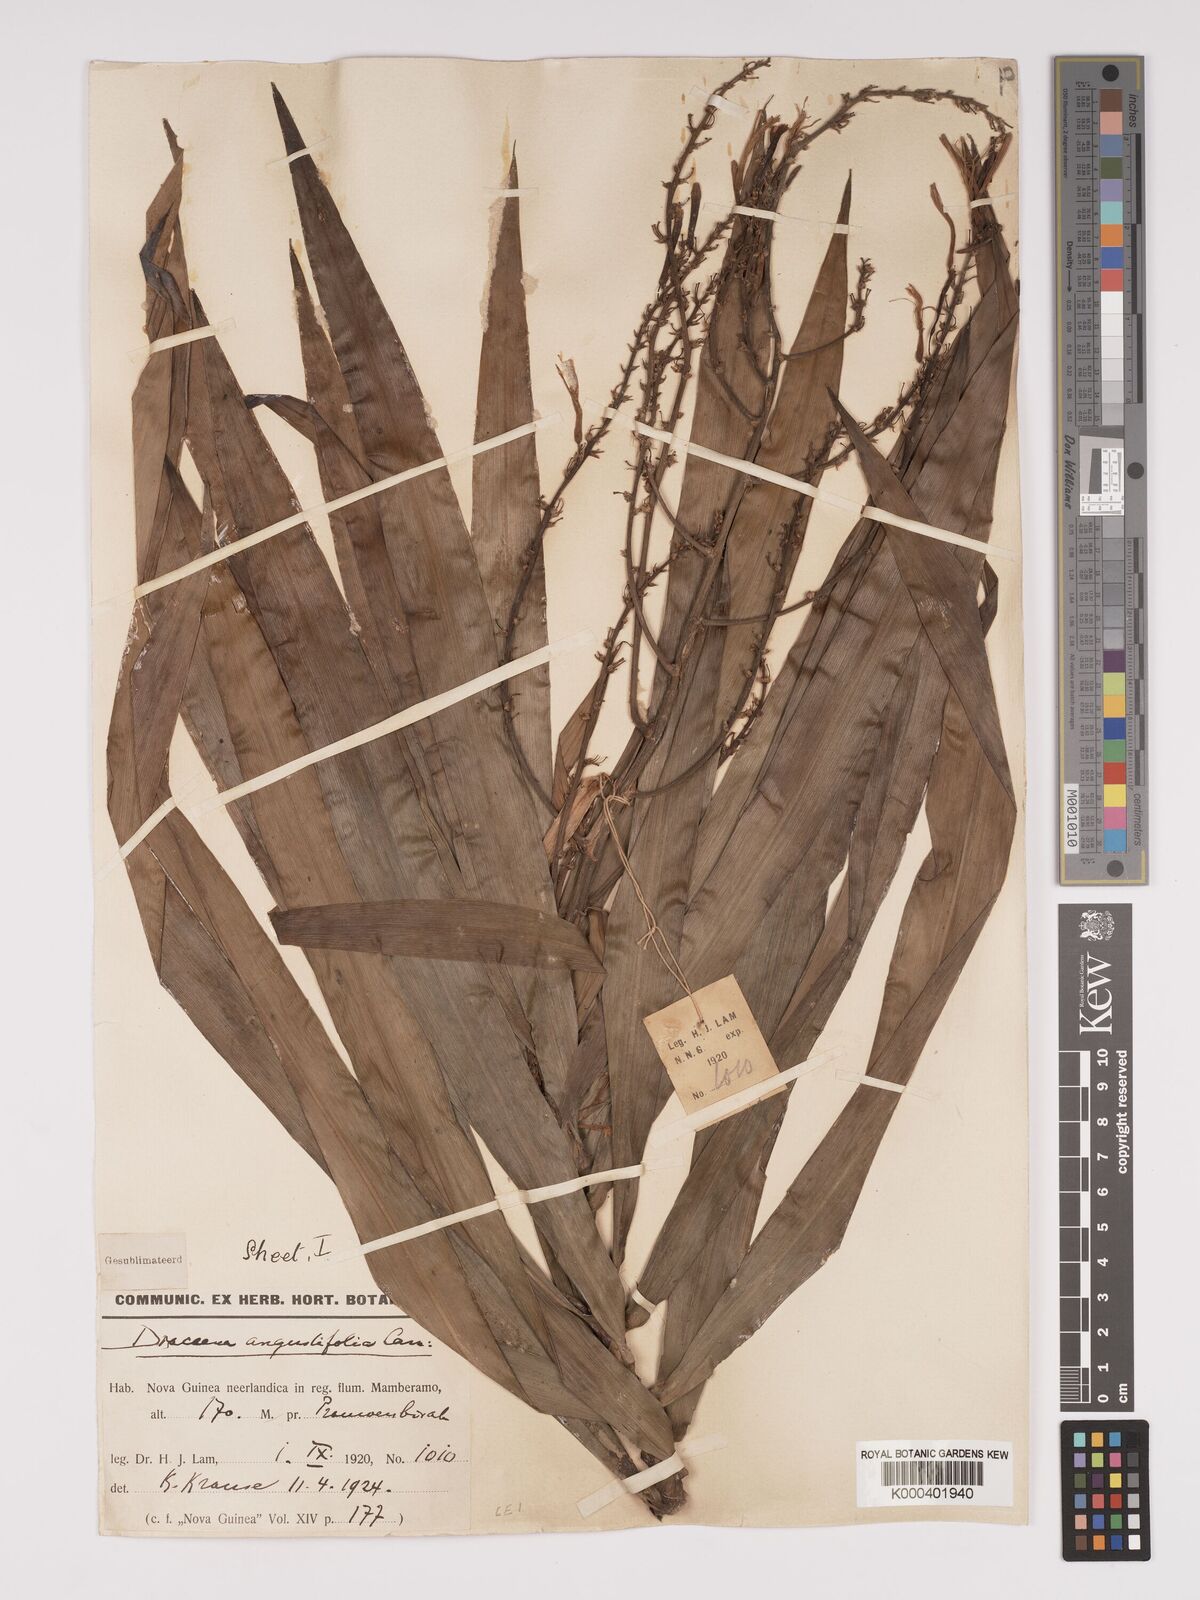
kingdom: Plantae
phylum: Tracheophyta
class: Liliopsida
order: Asparagales
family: Asparagaceae
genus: Dracaena
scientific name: Dracaena angustifolia
